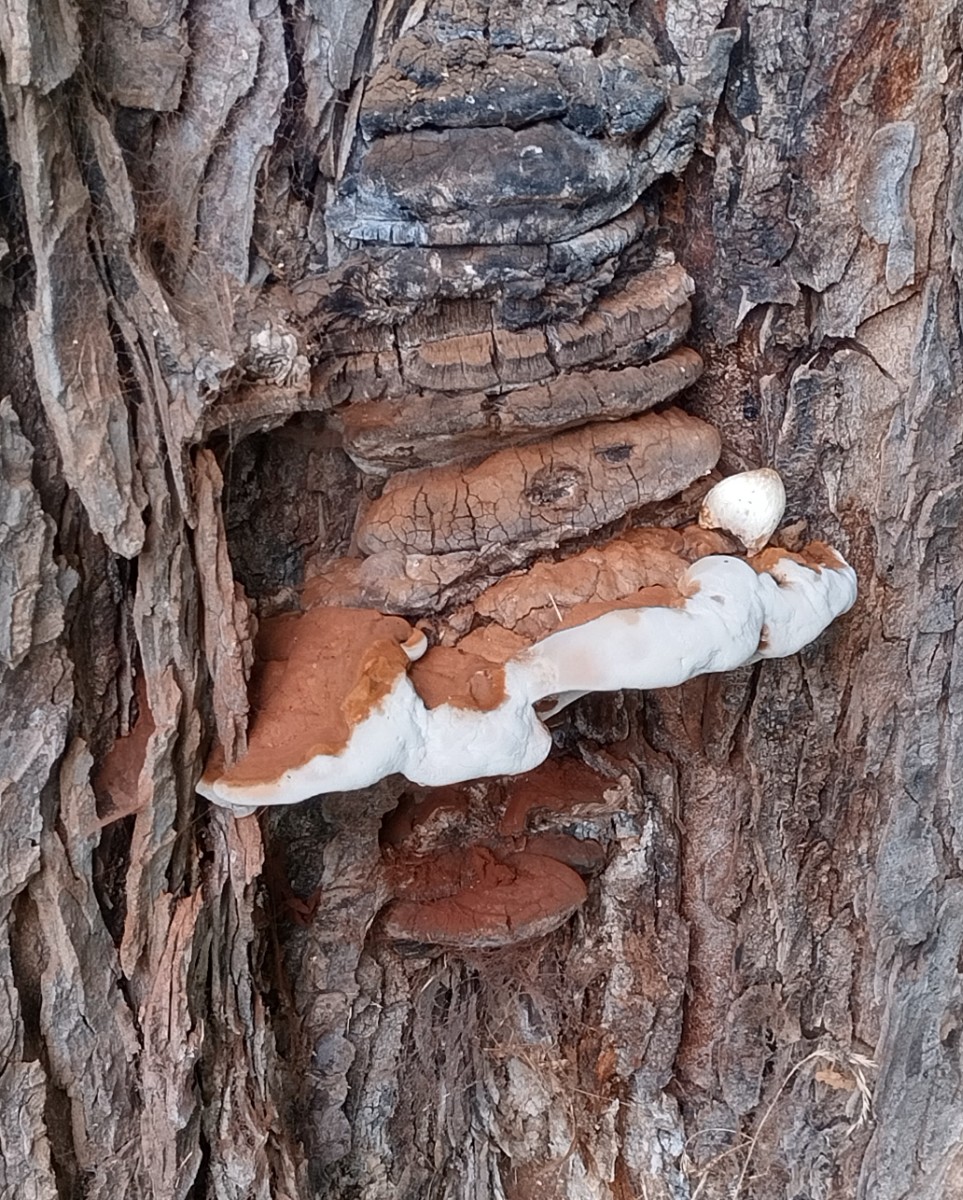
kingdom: Fungi
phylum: Basidiomycota
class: Agaricomycetes
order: Polyporales
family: Polyporaceae
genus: Ganoderma
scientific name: Ganoderma adspersum
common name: grov lakporesvamp
